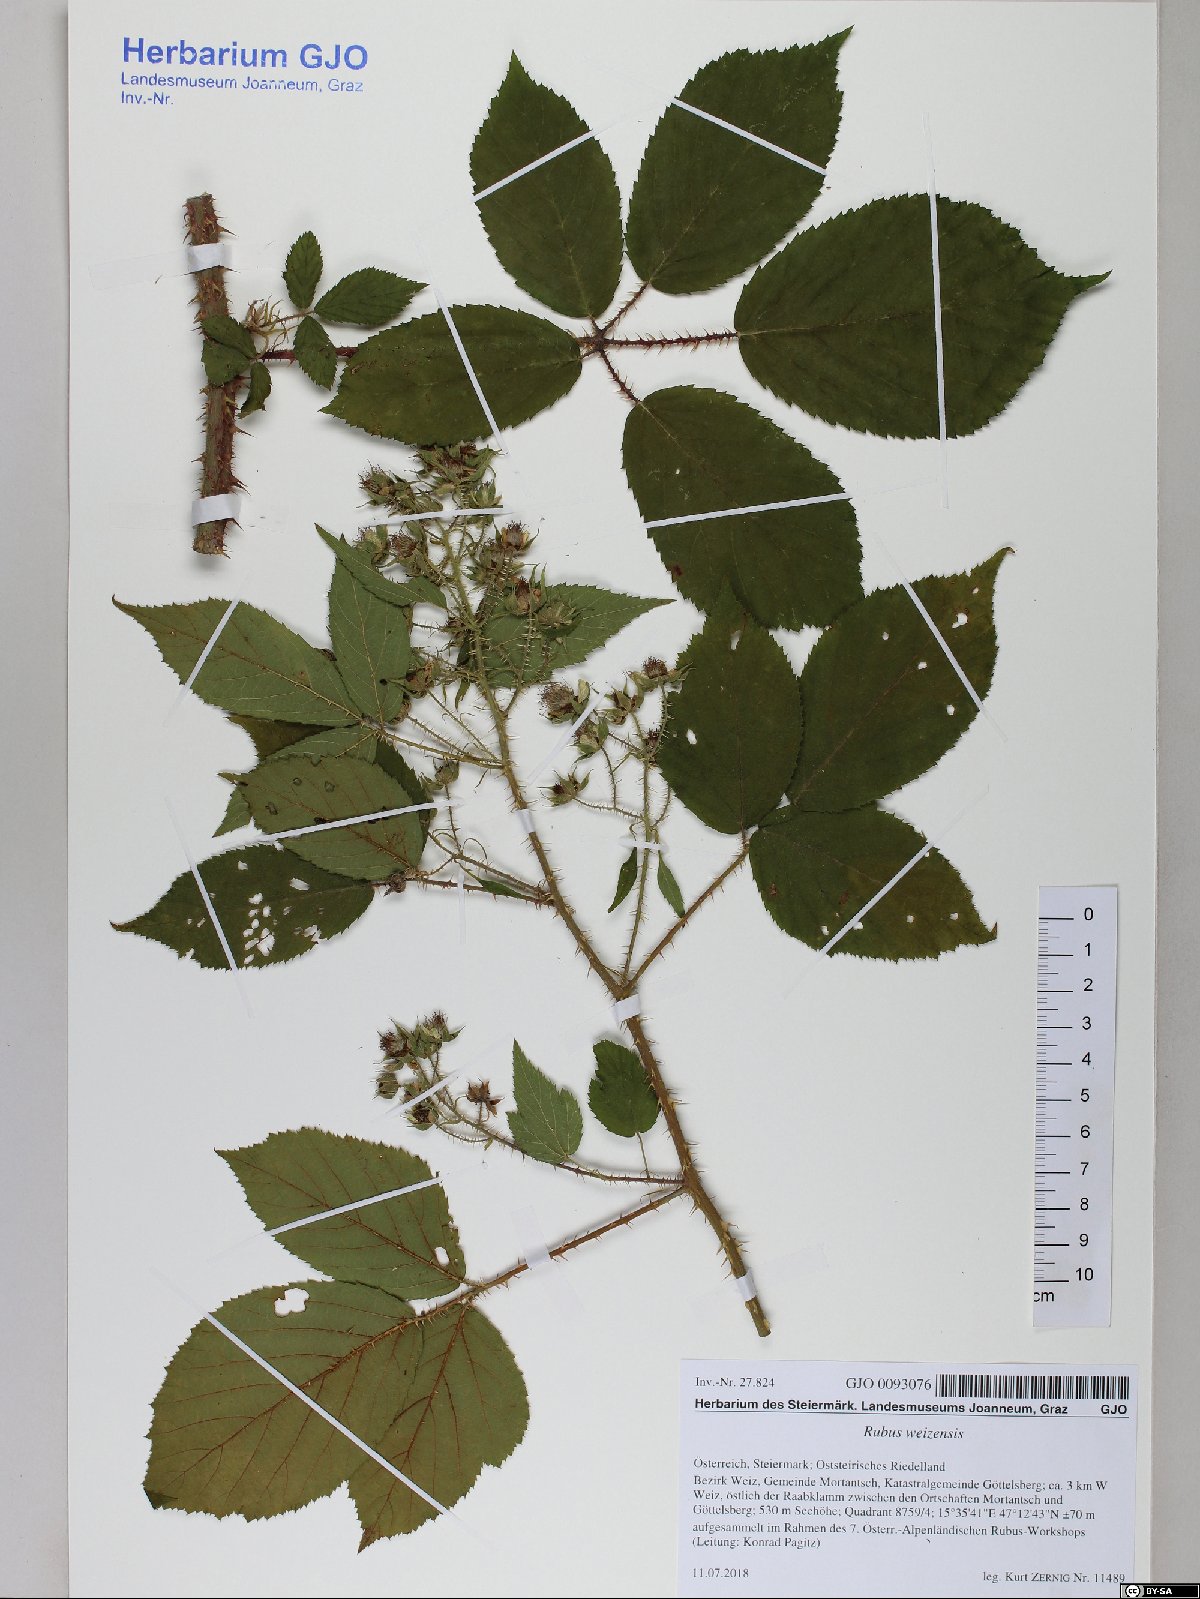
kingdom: Plantae
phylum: Tracheophyta
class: Magnoliopsida
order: Rosales
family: Rosaceae
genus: Rubus
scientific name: Rubus weizensis
